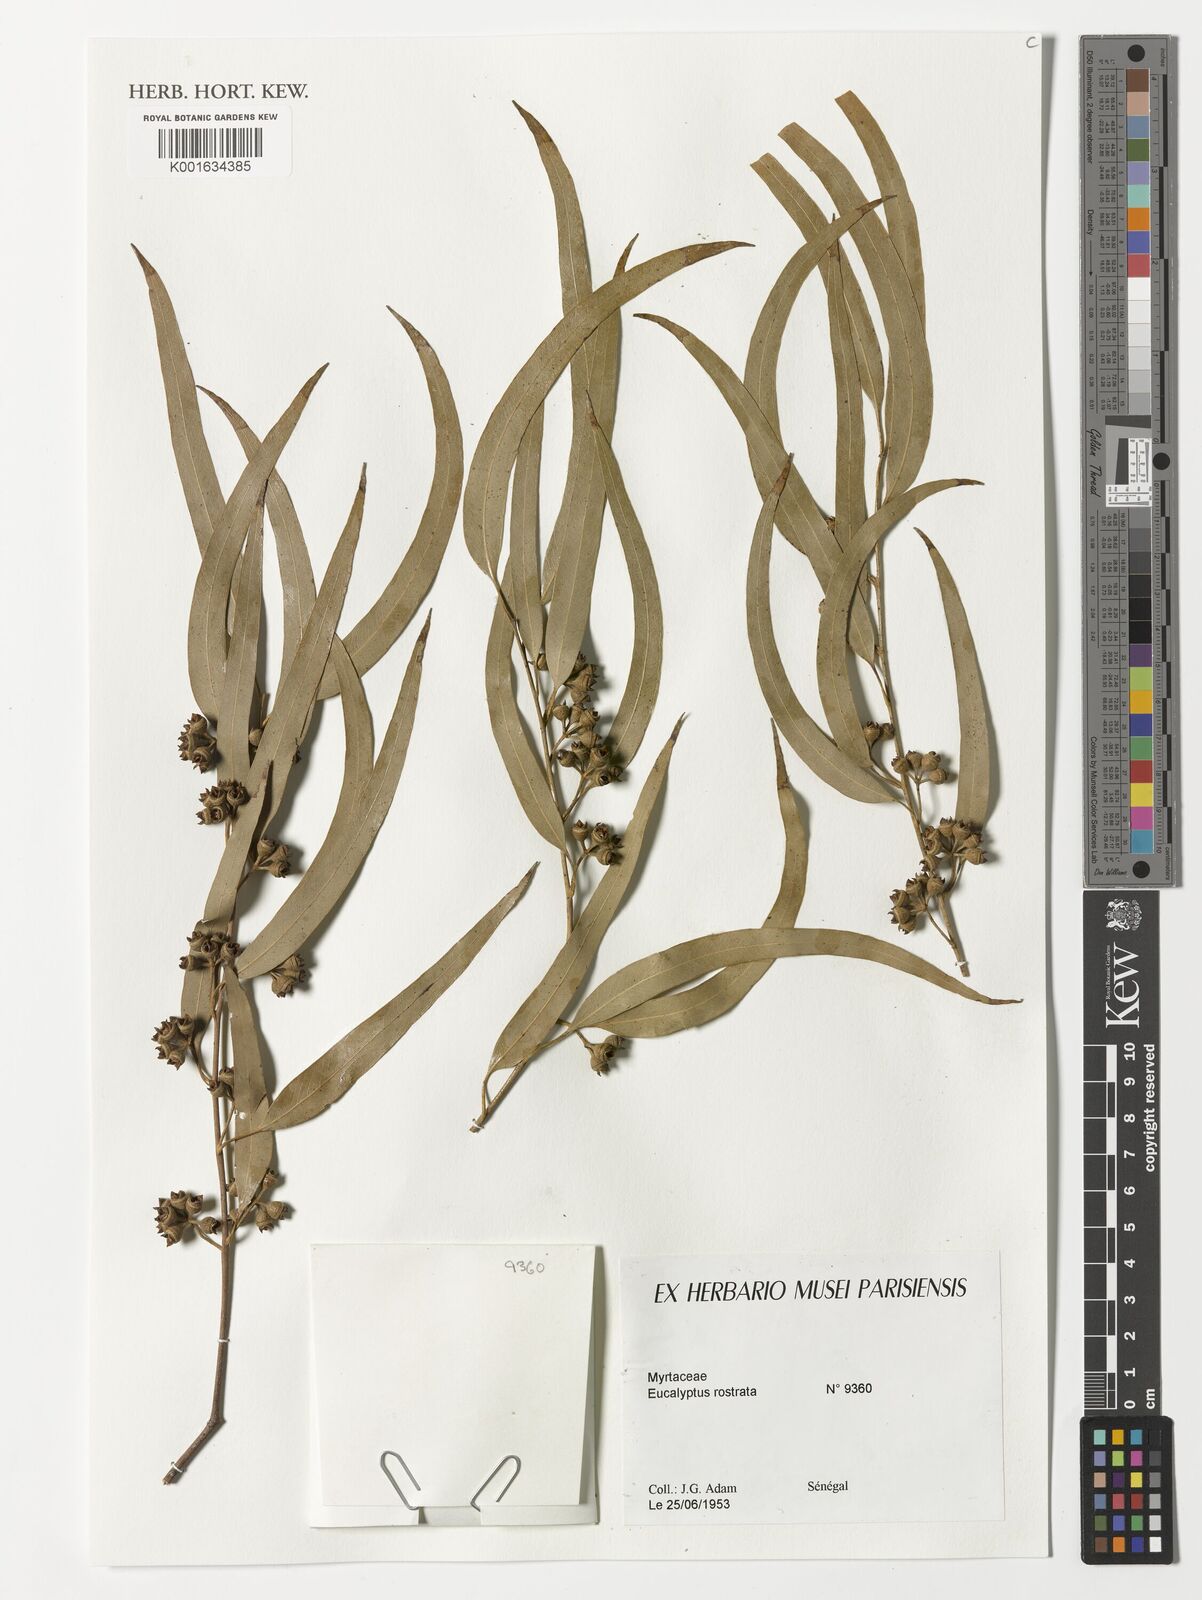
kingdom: Plantae
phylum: Tracheophyta
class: Magnoliopsida
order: Myrtales
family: Myrtaceae
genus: Eucalyptus
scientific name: Eucalyptus camaldulensis
